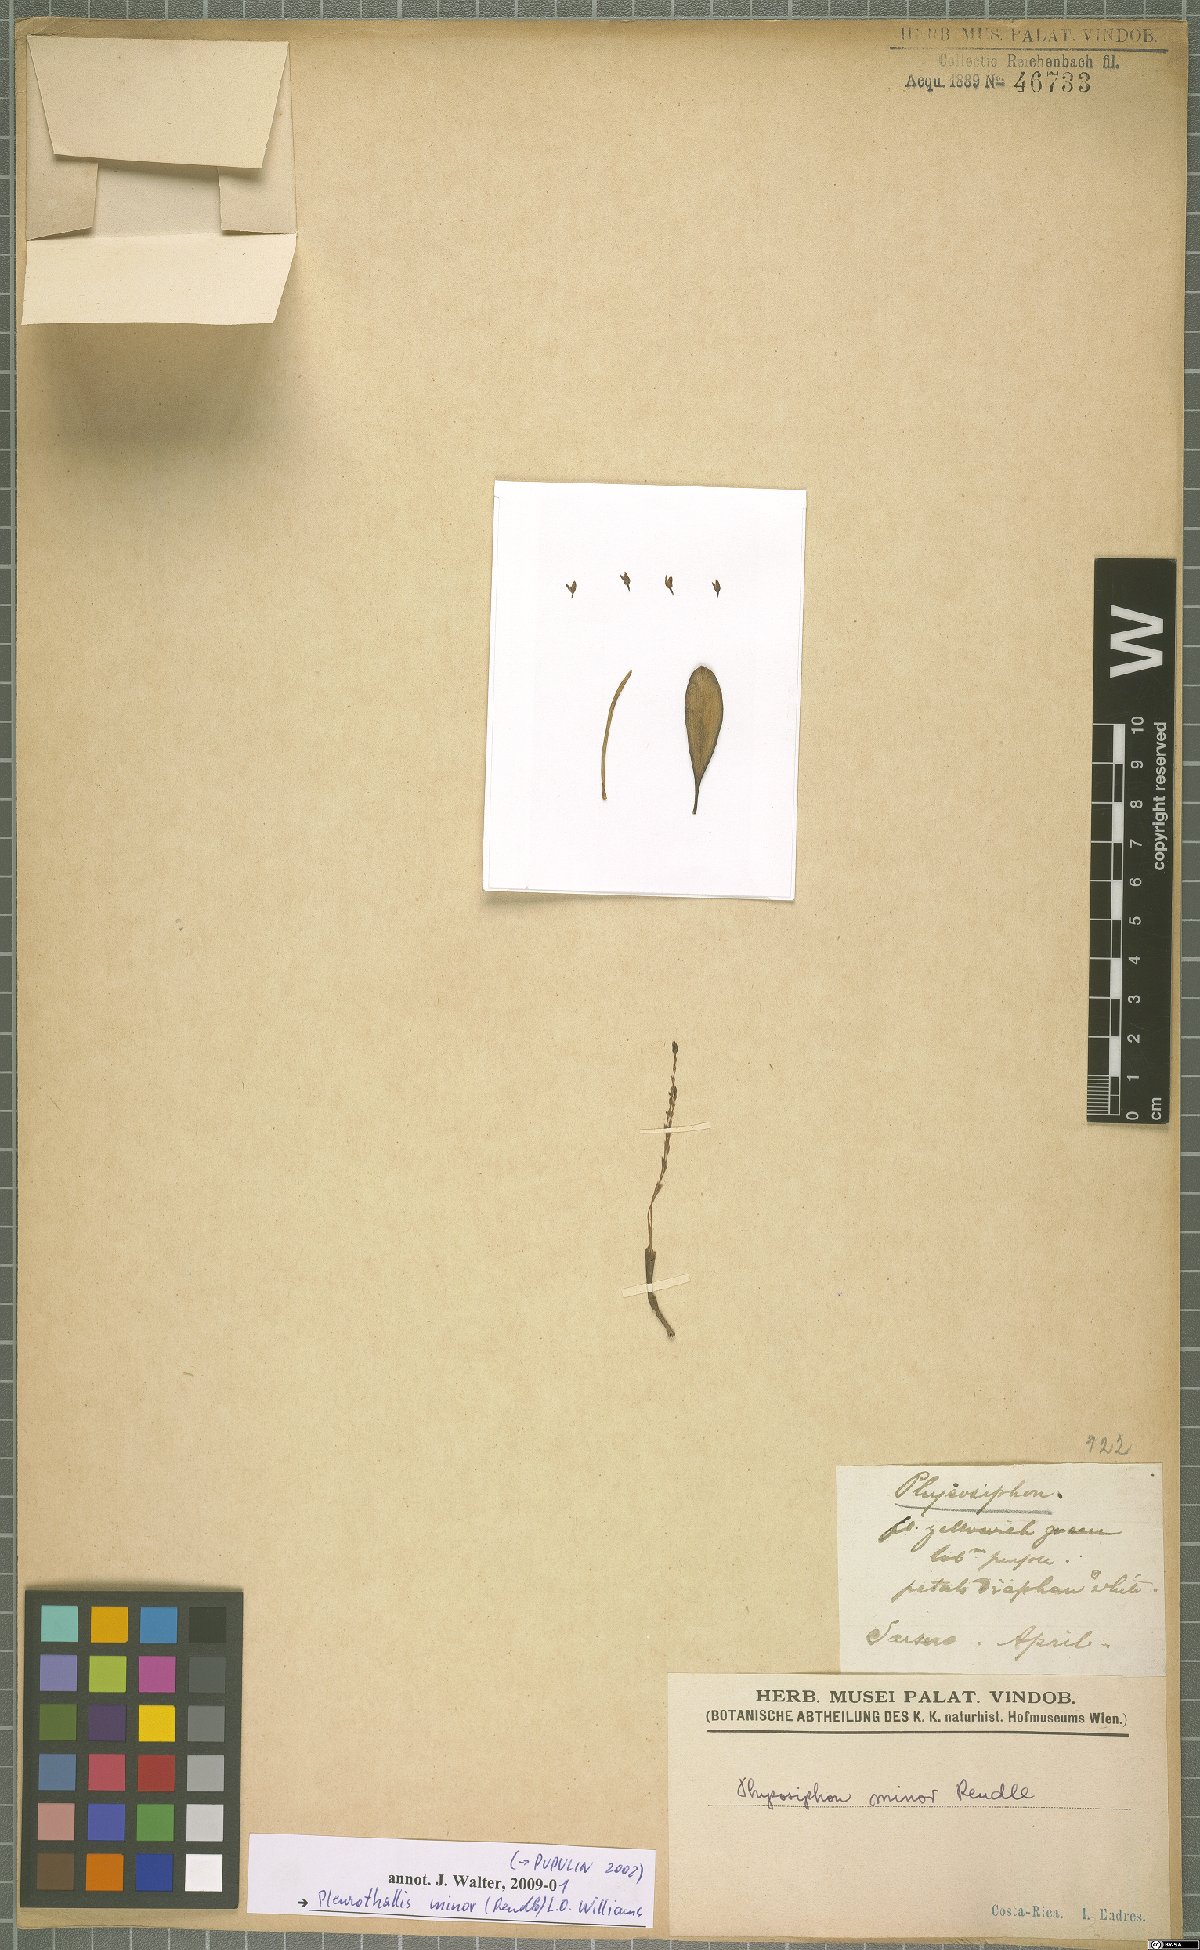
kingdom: Plantae
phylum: Tracheophyta
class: Liliopsida
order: Asparagales
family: Orchidaceae
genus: Stelis
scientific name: Stelis punctulata
